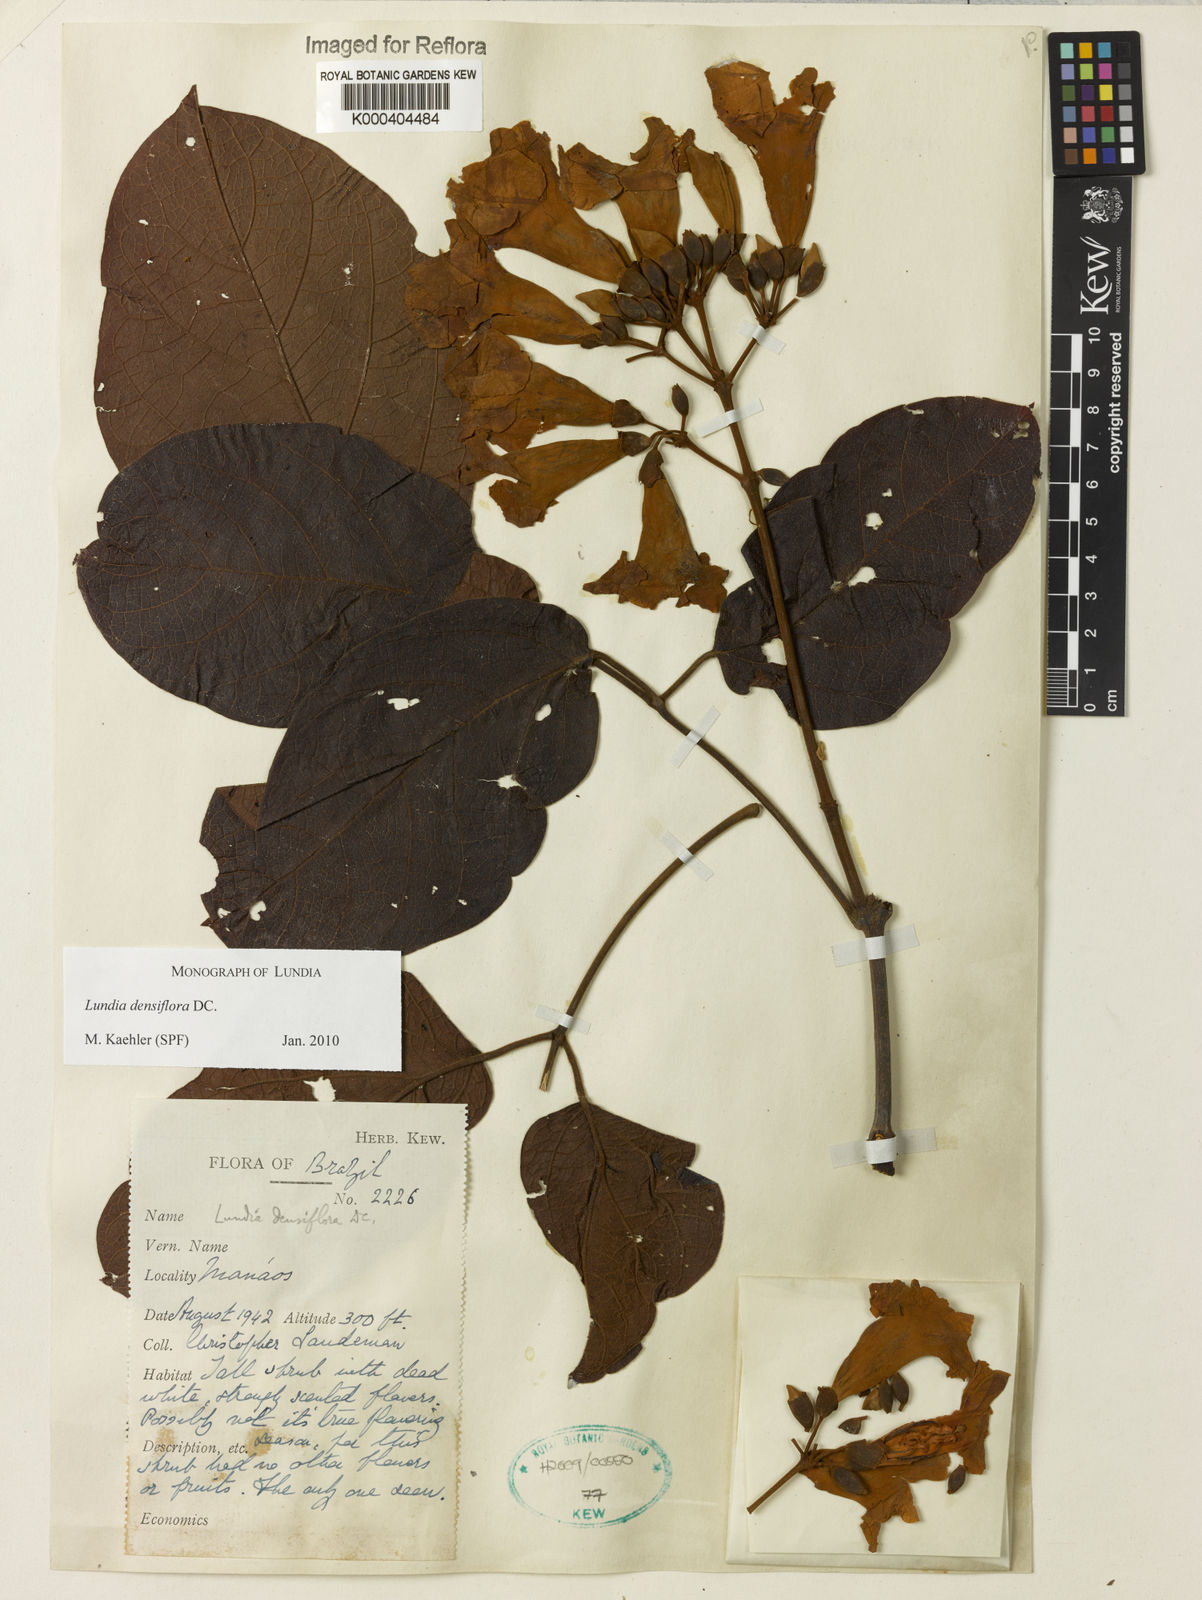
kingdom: Plantae
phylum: Tracheophyta
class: Magnoliopsida
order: Lamiales
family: Bignoniaceae
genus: Lundia
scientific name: Lundia densiflora
